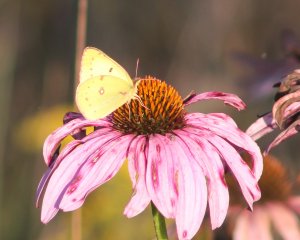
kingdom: Animalia
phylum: Arthropoda
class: Insecta
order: Lepidoptera
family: Pieridae
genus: Colias
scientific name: Colias philodice
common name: Clouded Sulphur
